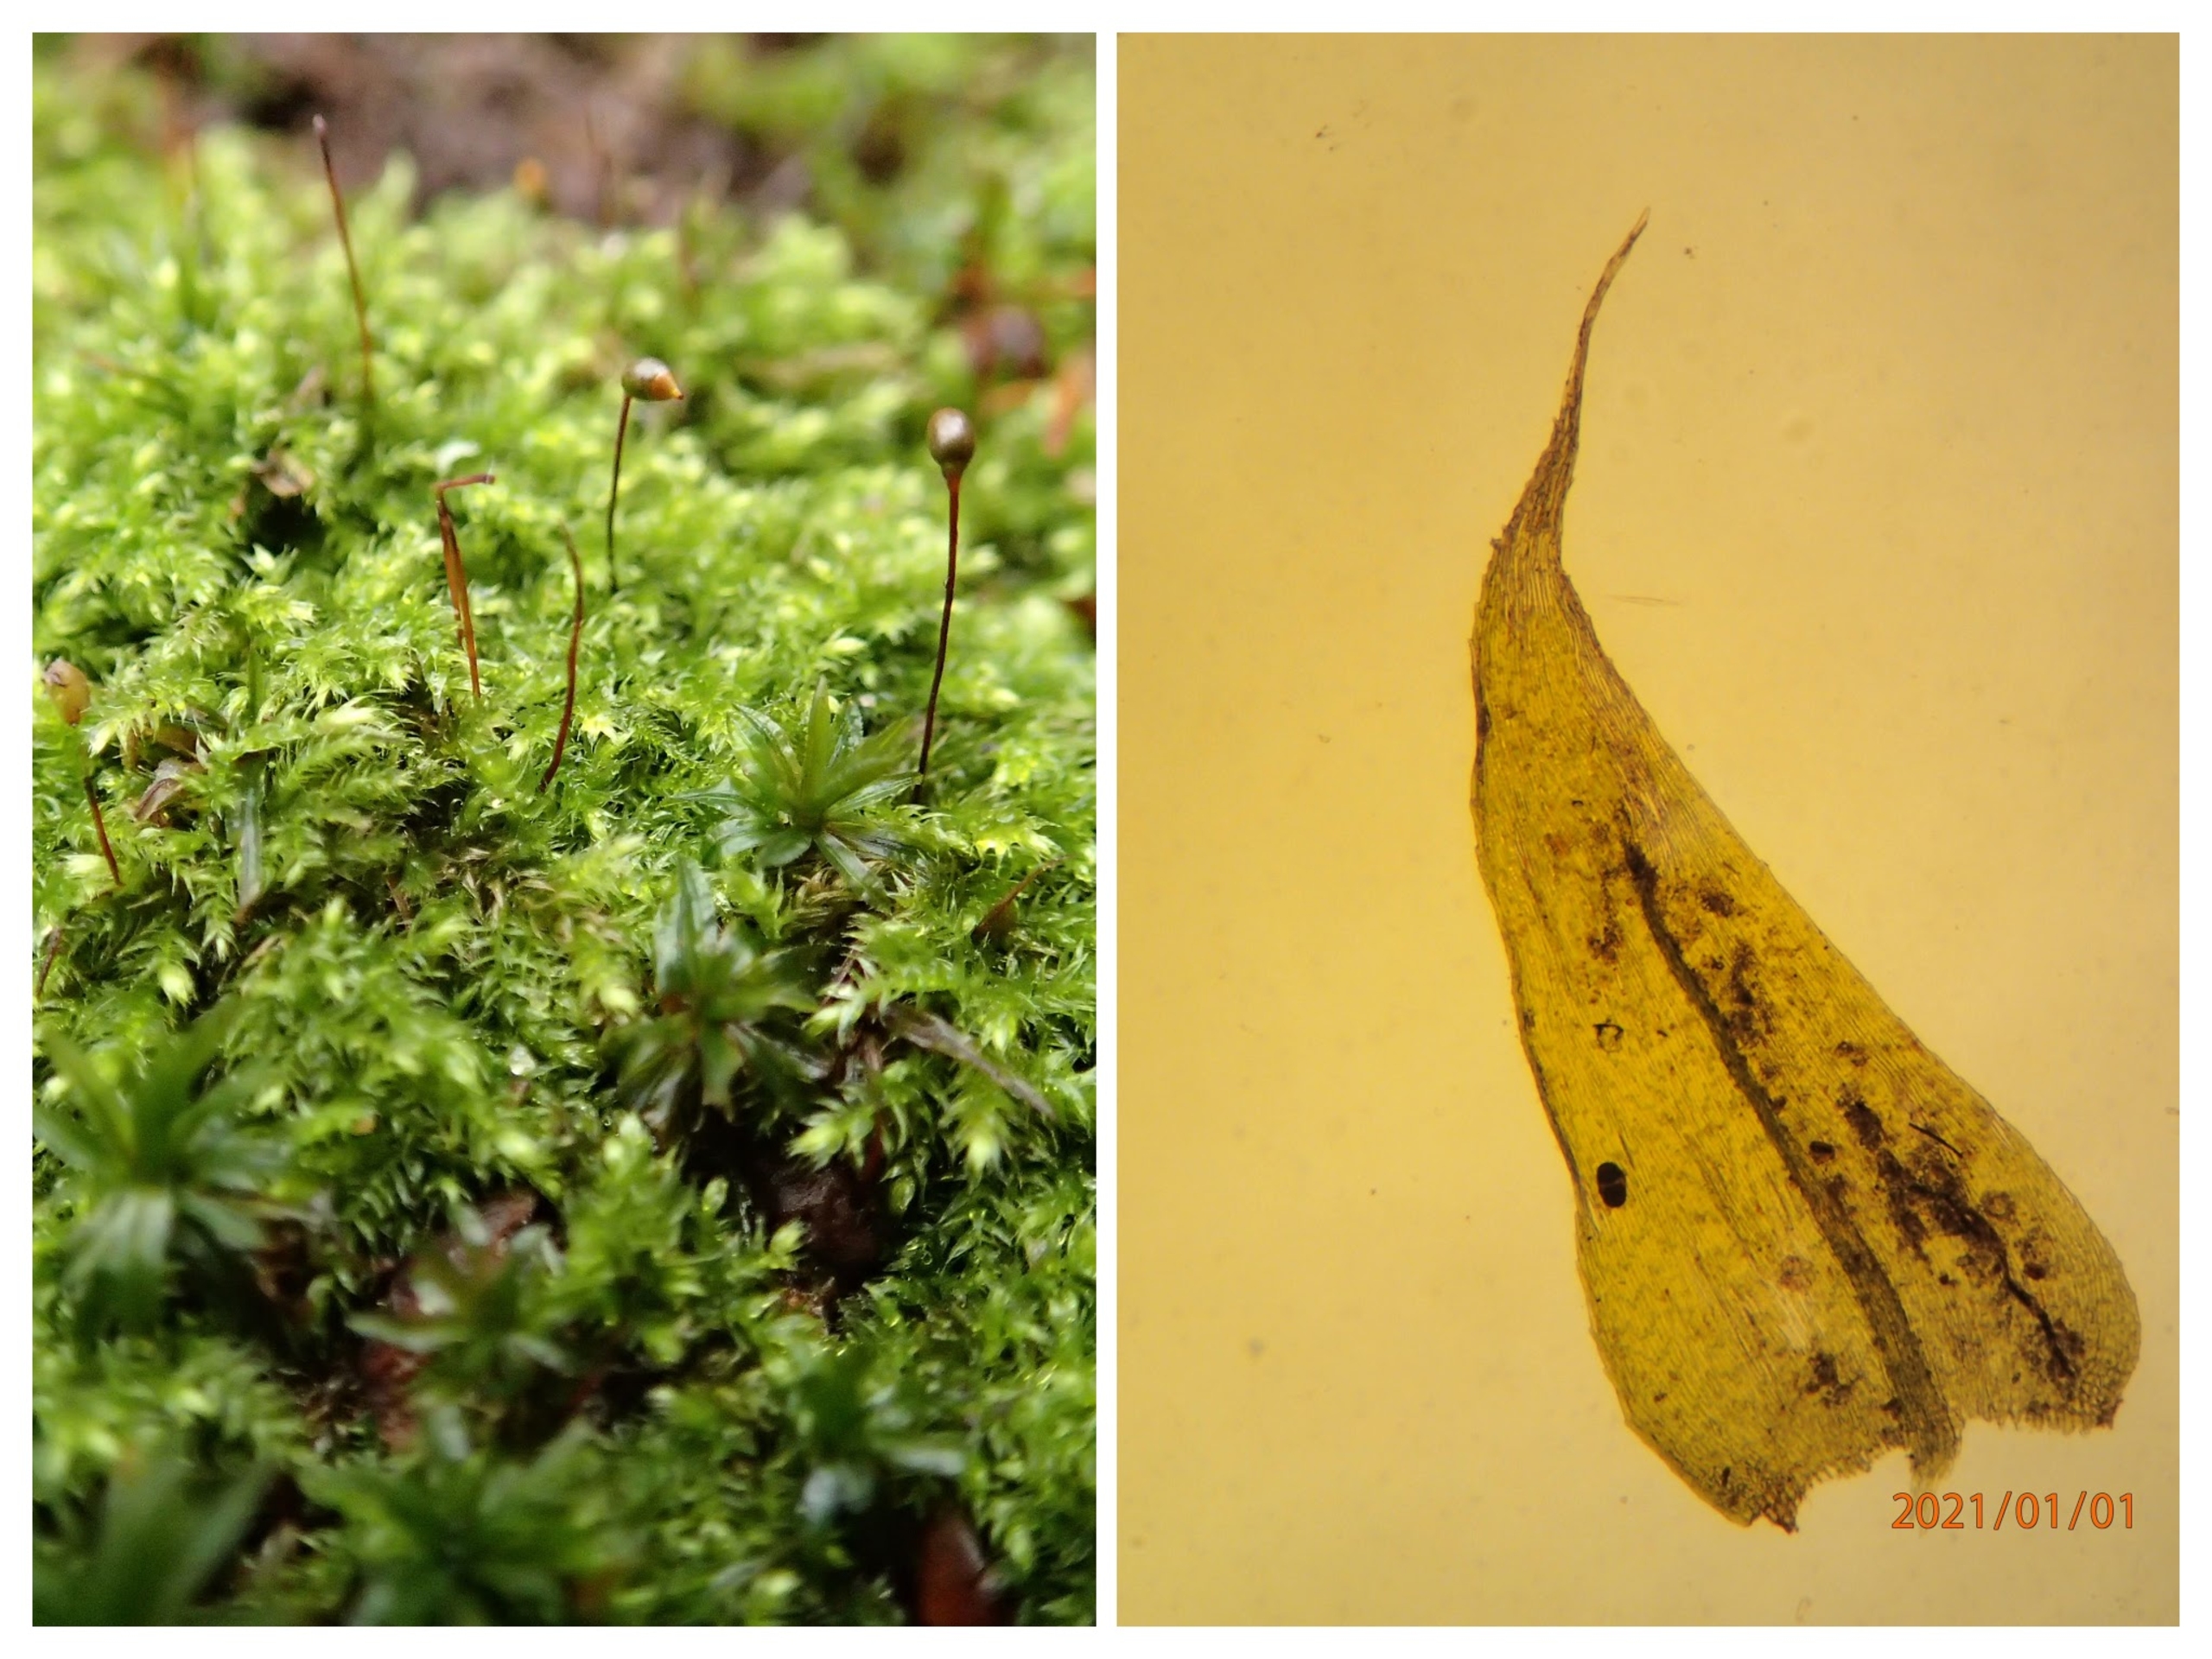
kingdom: Plantae
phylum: Bryophyta
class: Bryopsida
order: Hypnales
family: Brachytheciaceae
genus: Brachytheciastrum
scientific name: Brachytheciastrum velutinum
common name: Fløjls-kortkapsel
